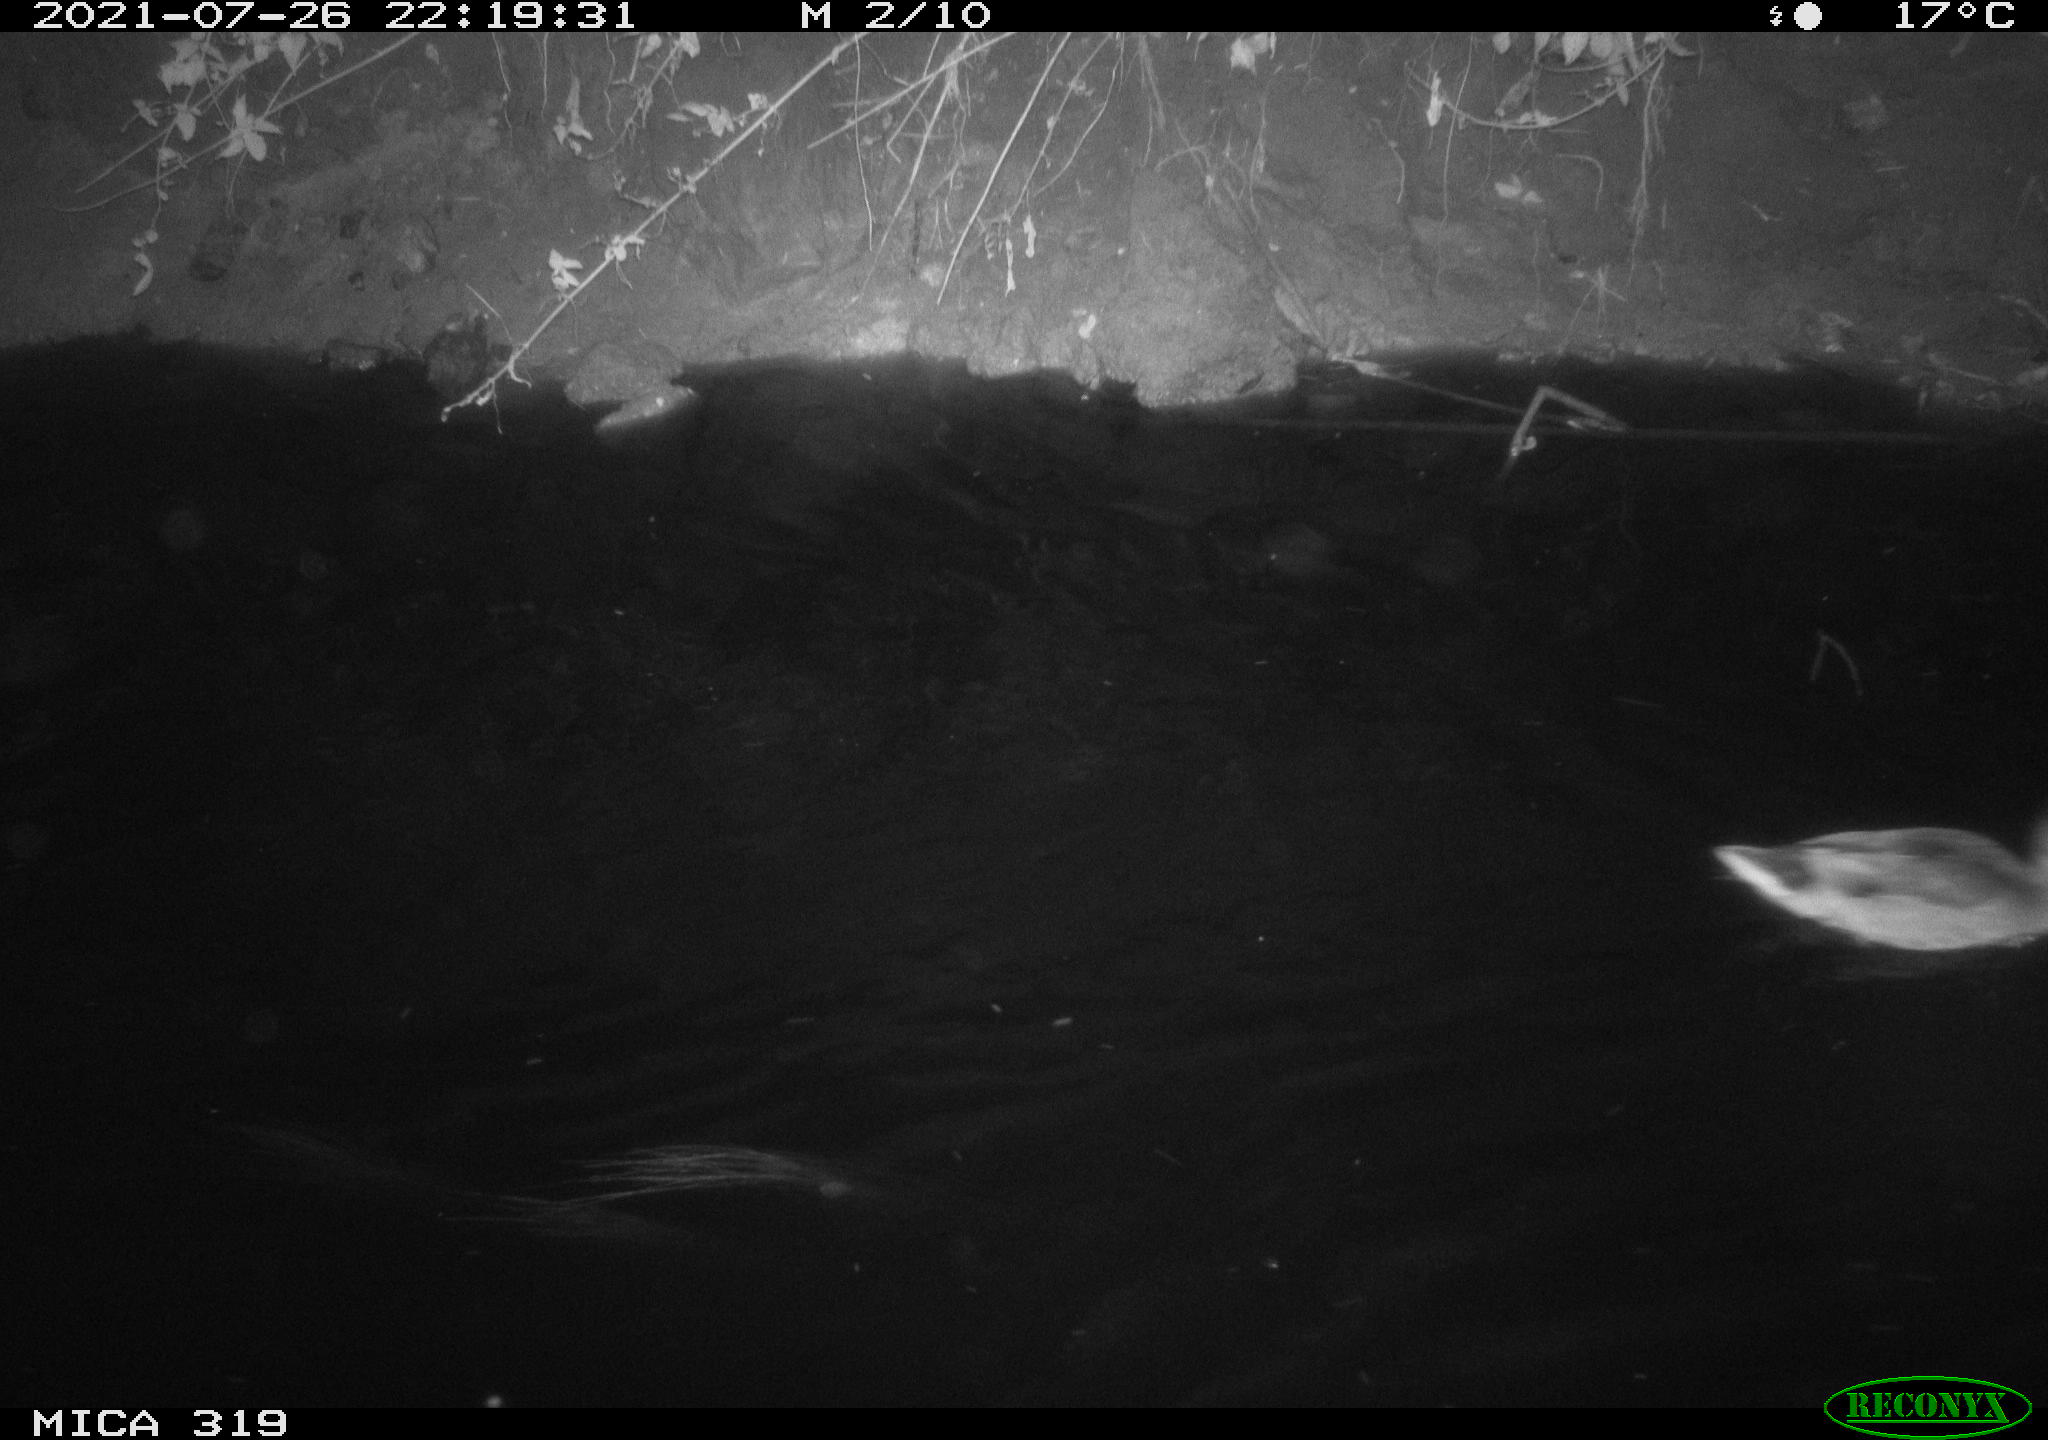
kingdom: Animalia
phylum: Chordata
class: Aves
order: Anseriformes
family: Anatidae
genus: Anas
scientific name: Anas platyrhynchos
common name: Mallard
